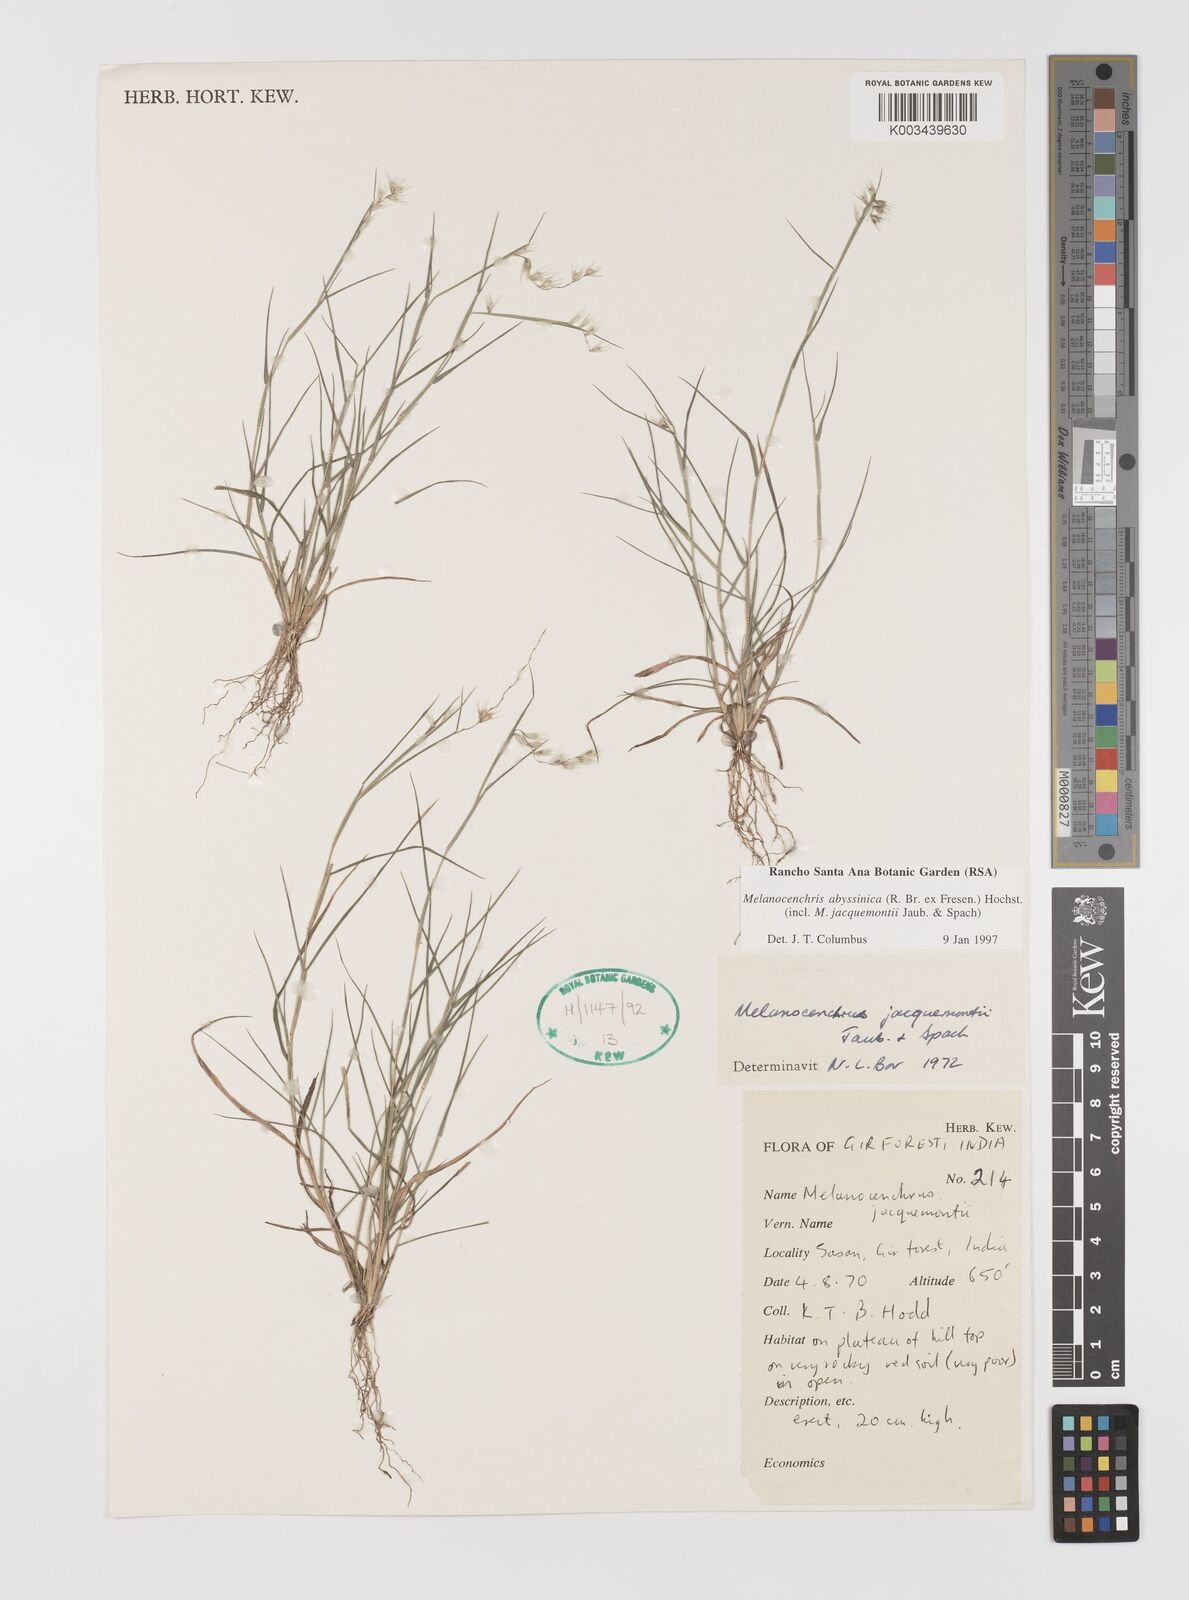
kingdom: Plantae
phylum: Tracheophyta
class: Liliopsida
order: Poales
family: Poaceae
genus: Melanocenchris
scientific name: Melanocenchris abyssinica
